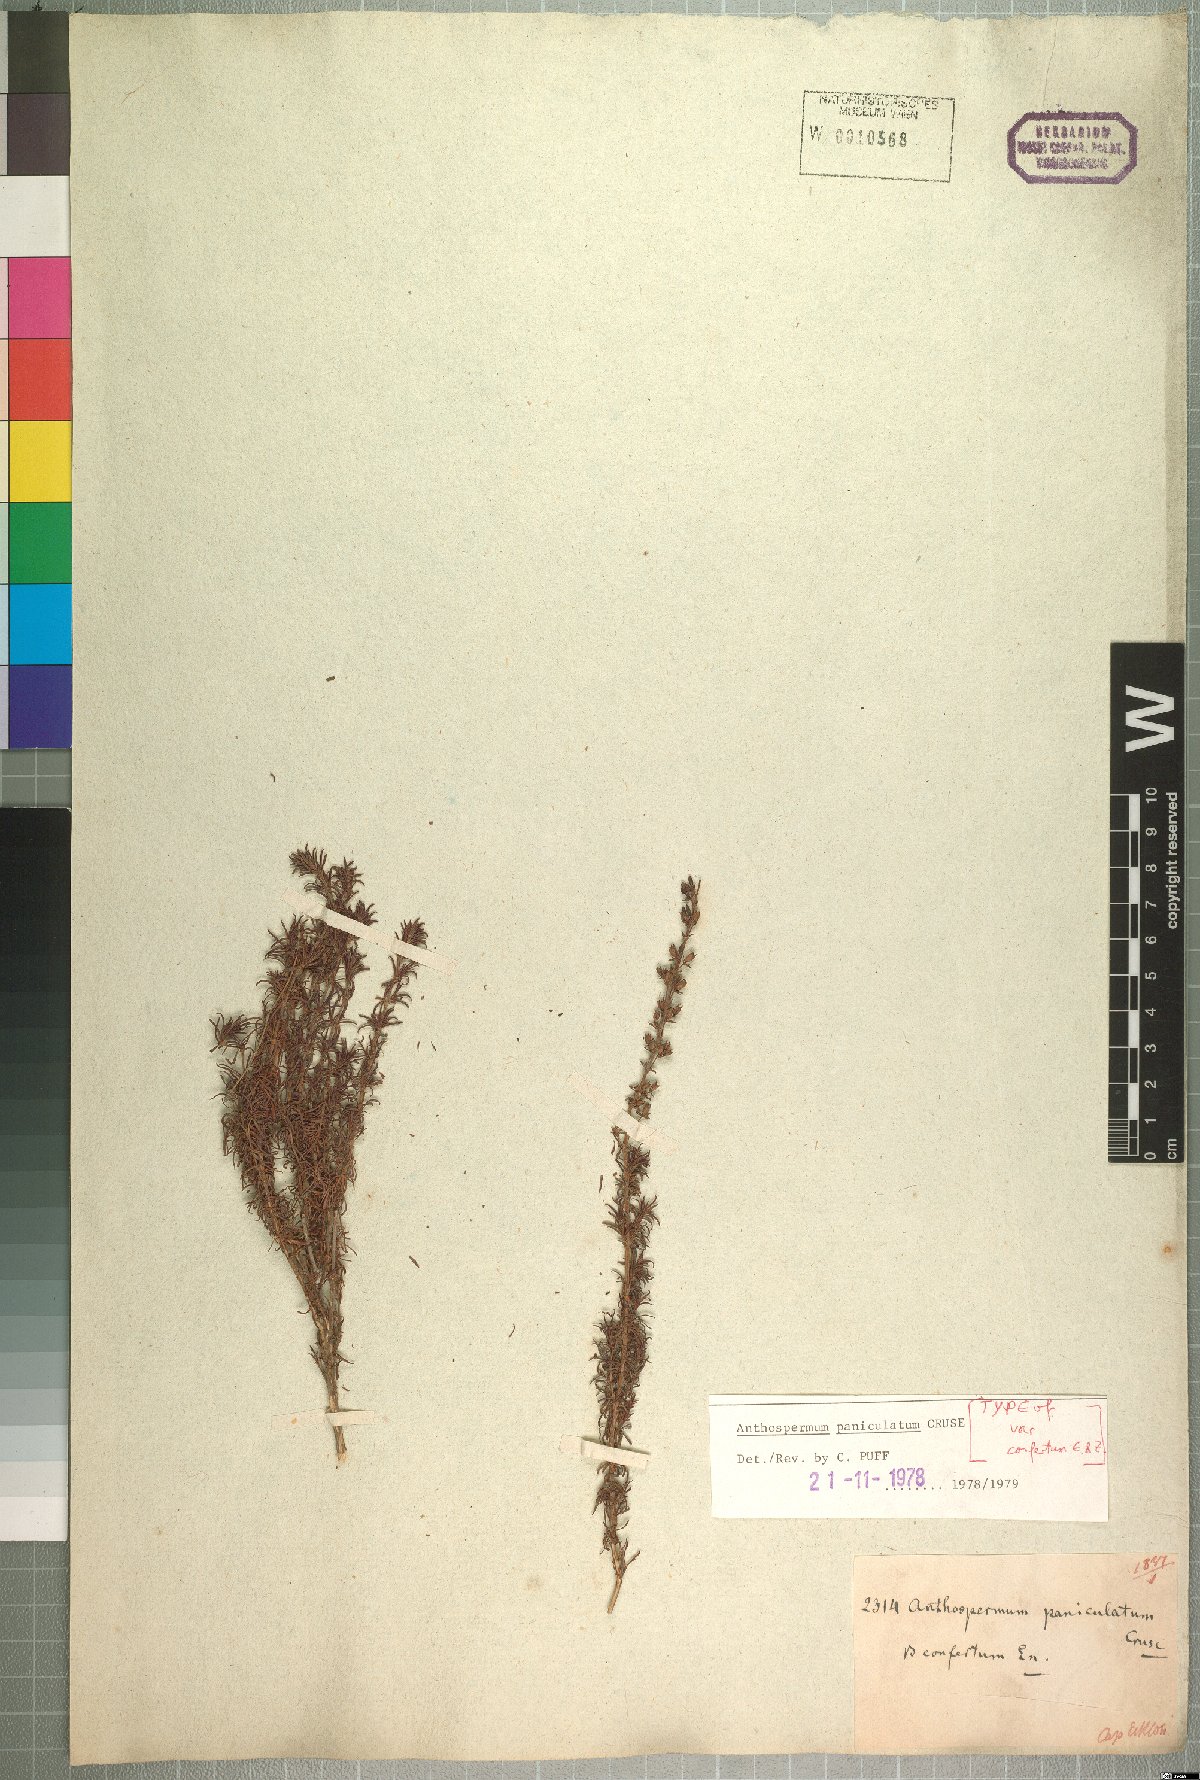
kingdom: Plantae
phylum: Tracheophyta
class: Magnoliopsida
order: Gentianales
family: Rubiaceae
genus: Anthospermum
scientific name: Anthospermum paniculatum
